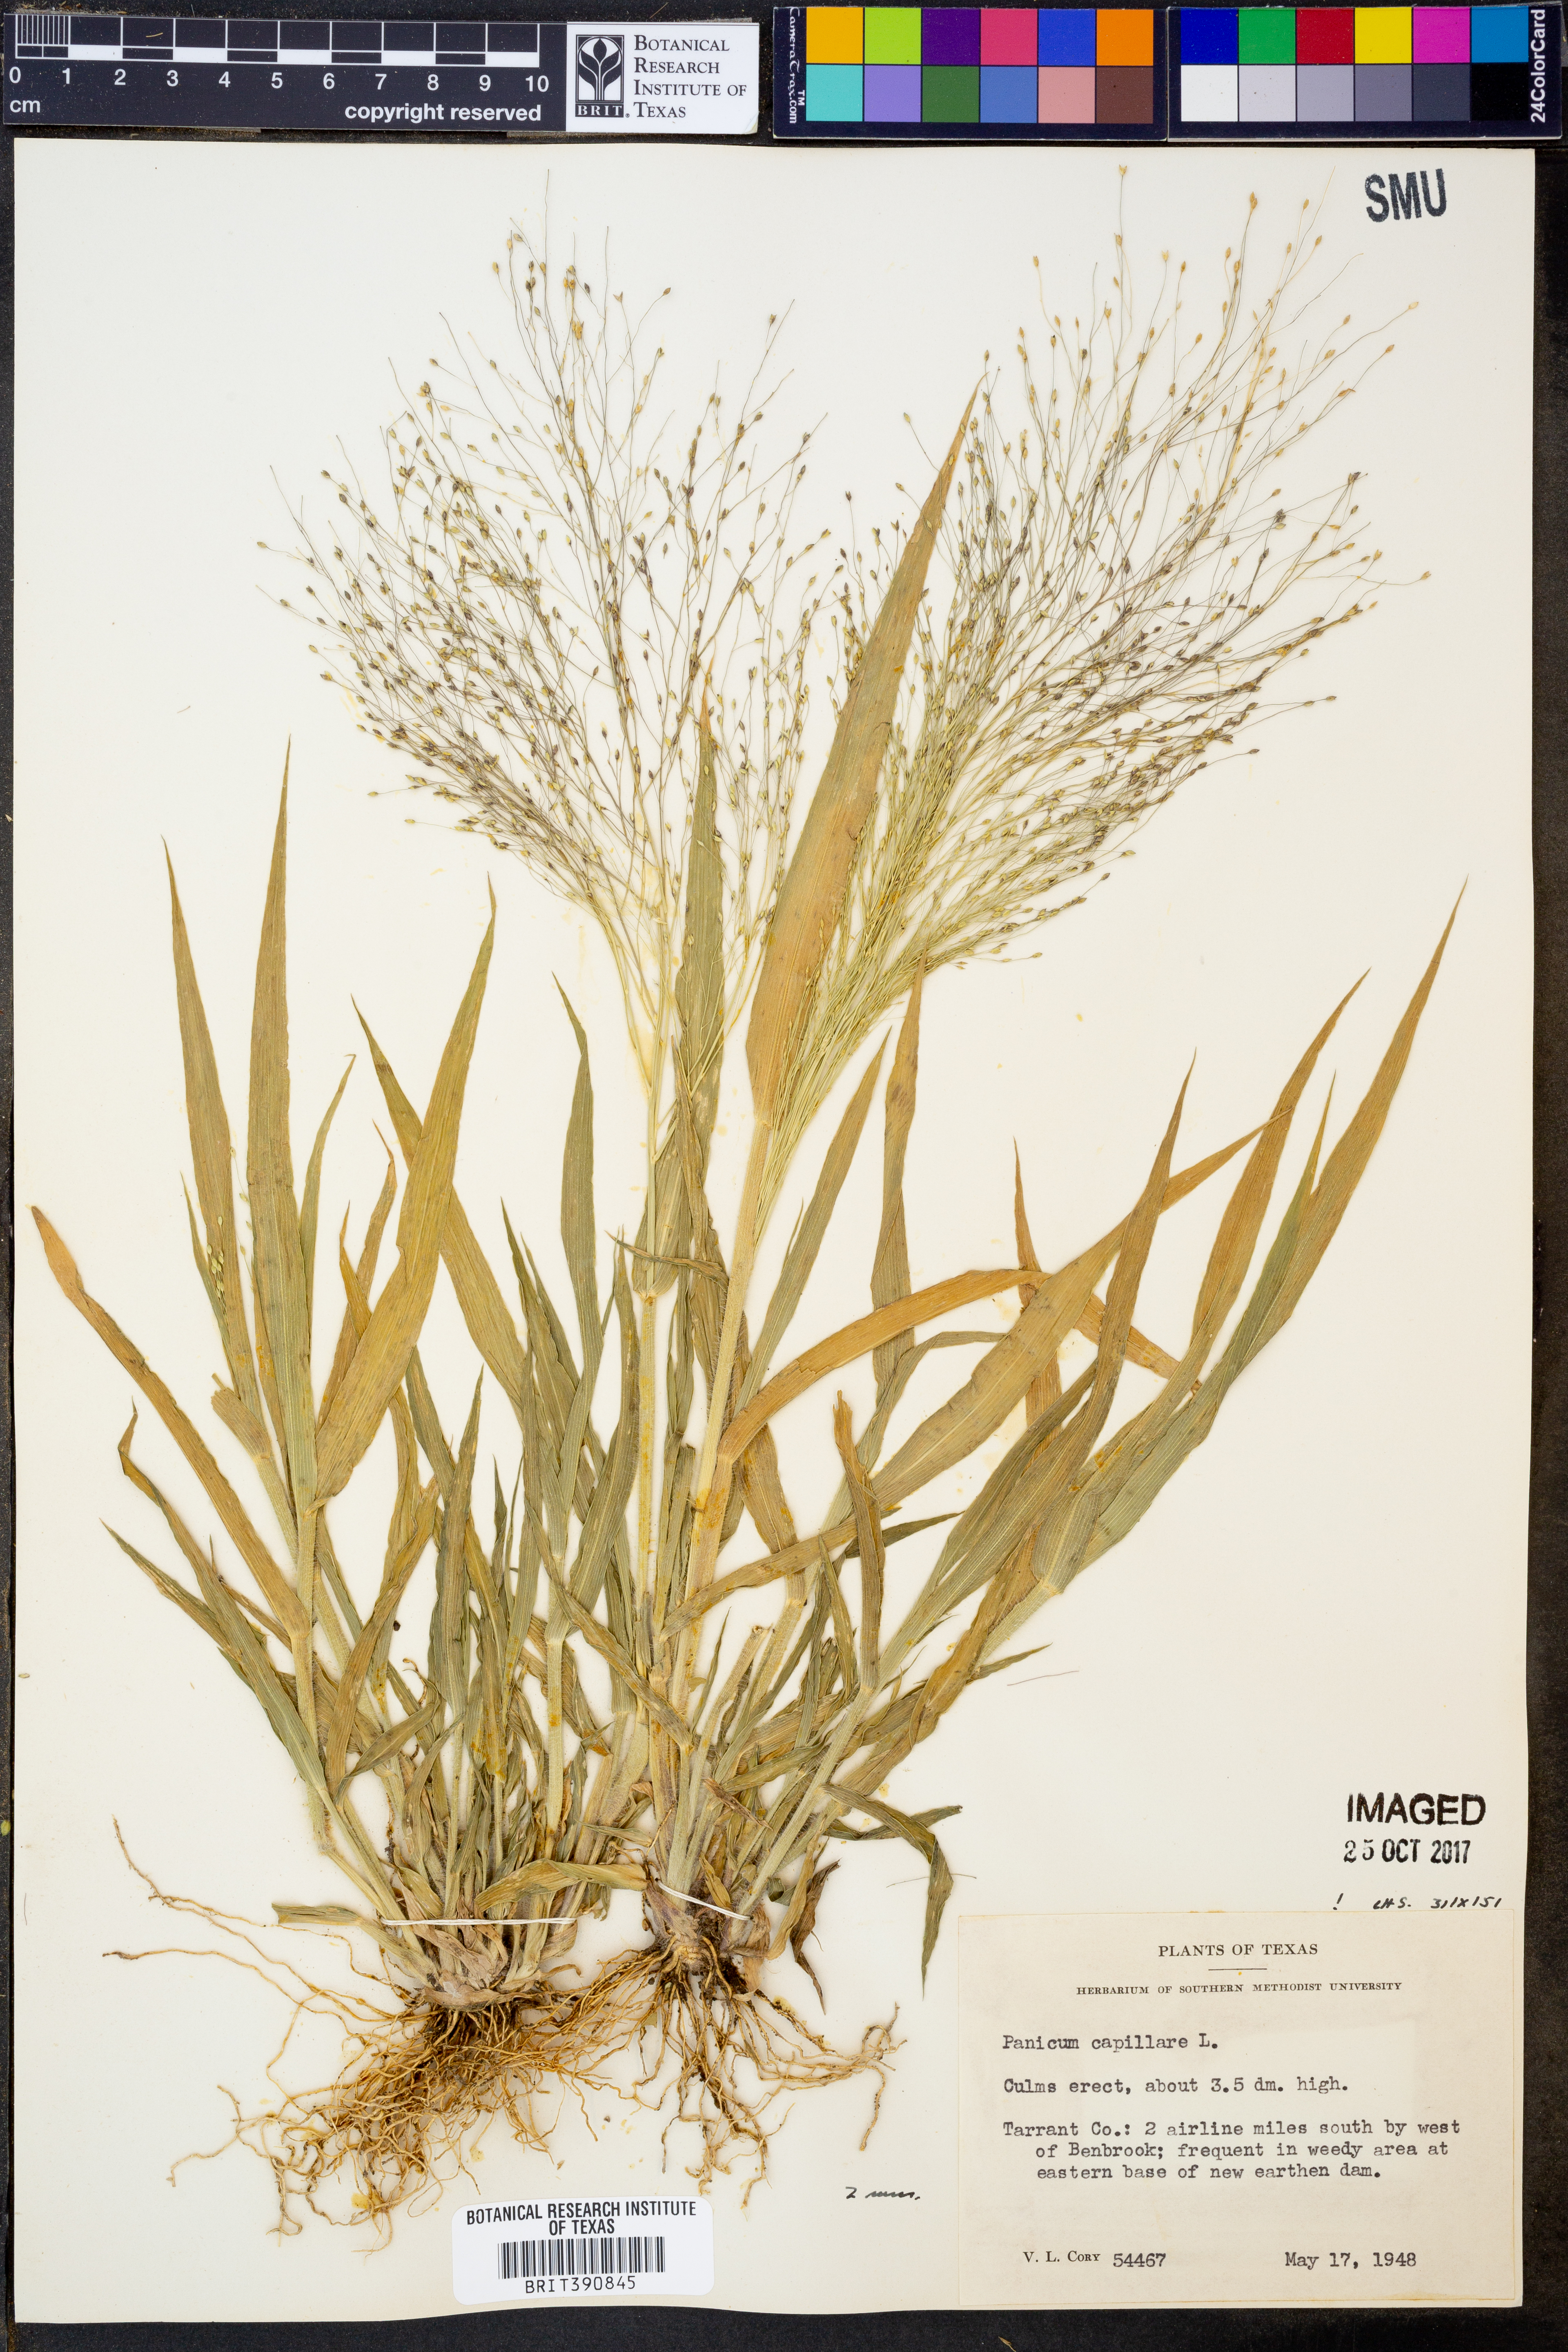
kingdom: Plantae
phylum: Tracheophyta
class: Liliopsida
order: Poales
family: Poaceae
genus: Panicum
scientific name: Panicum capillare
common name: Witch-grass
